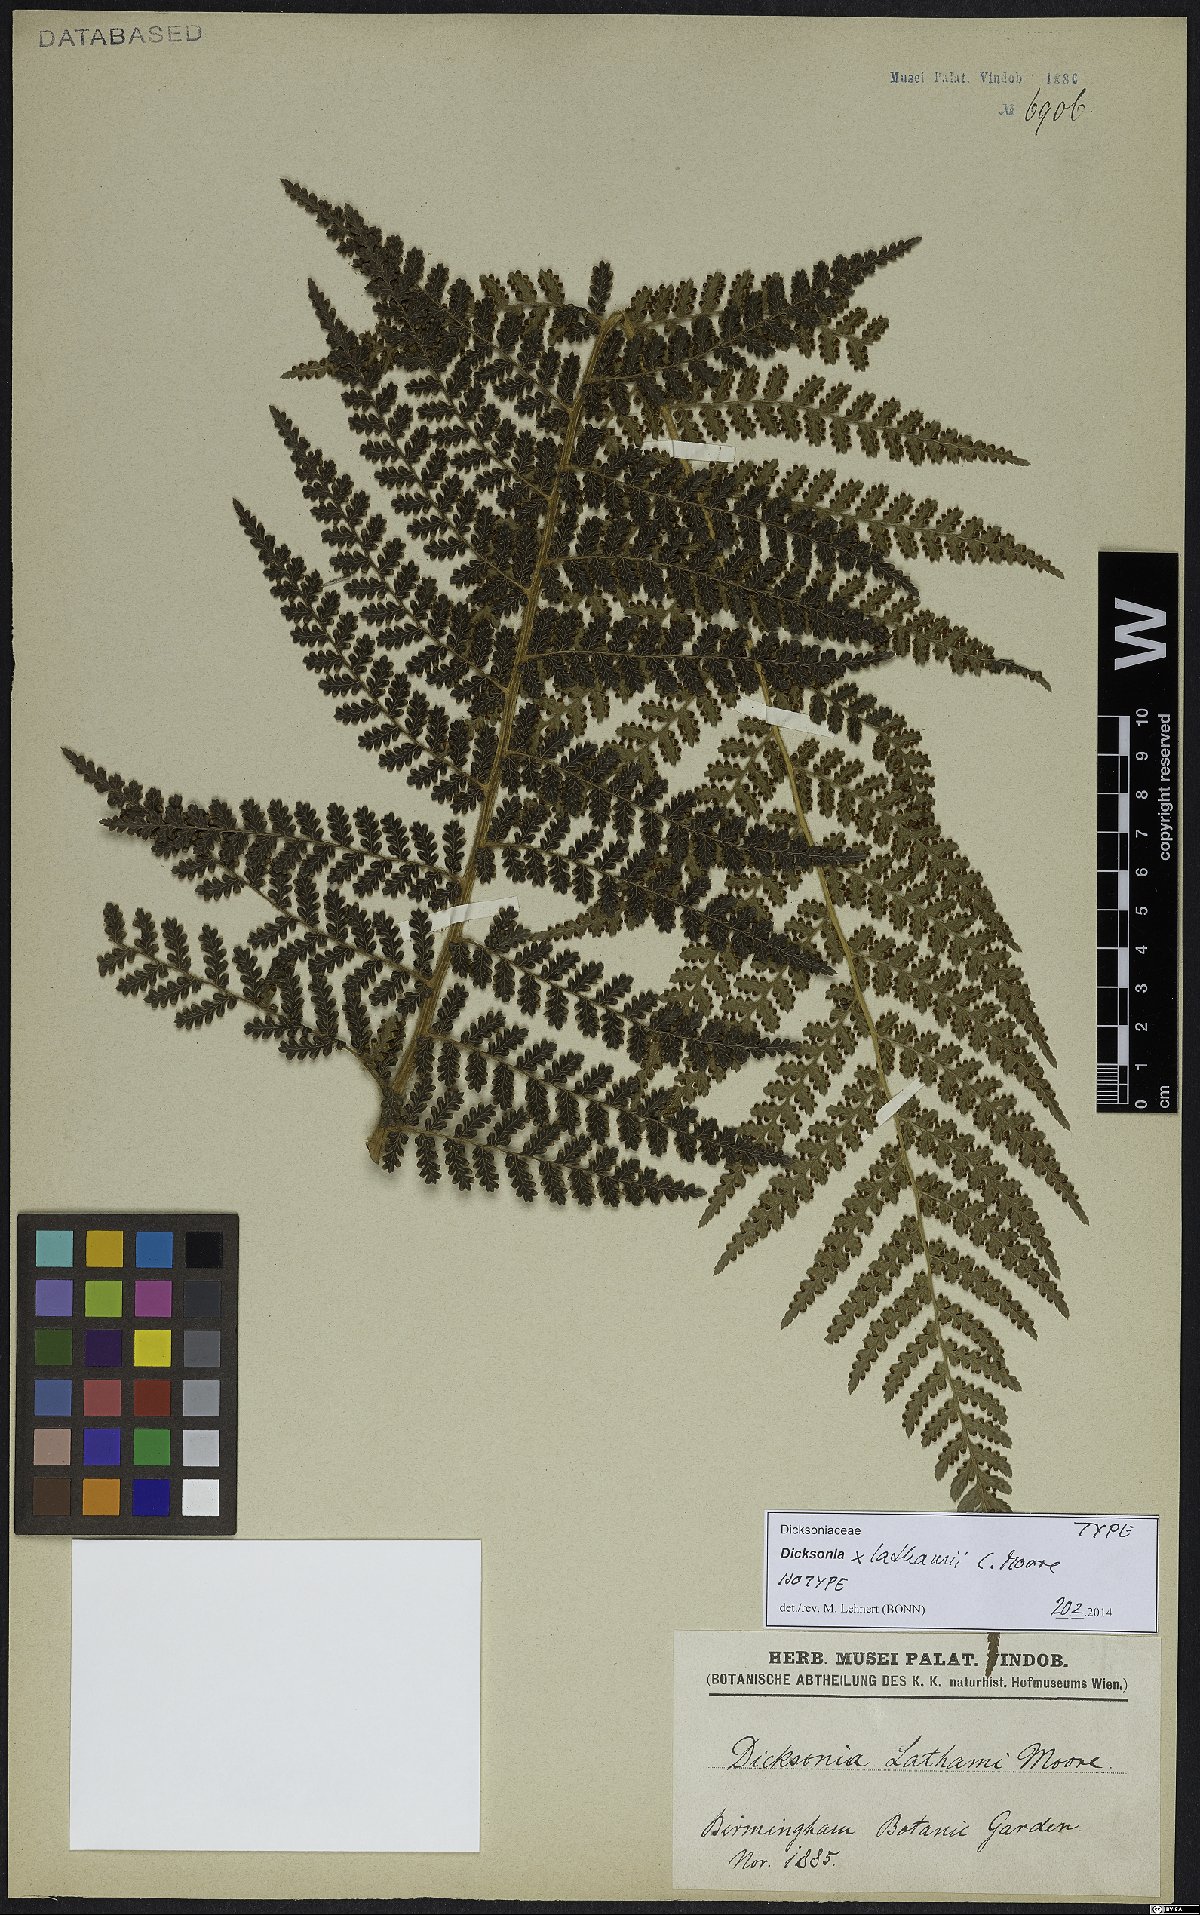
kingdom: Plantae
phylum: Tracheophyta
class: Polypodiopsida
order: Cyatheales
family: Dicksoniaceae
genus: Dicksonia
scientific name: Dicksonia lathamii
